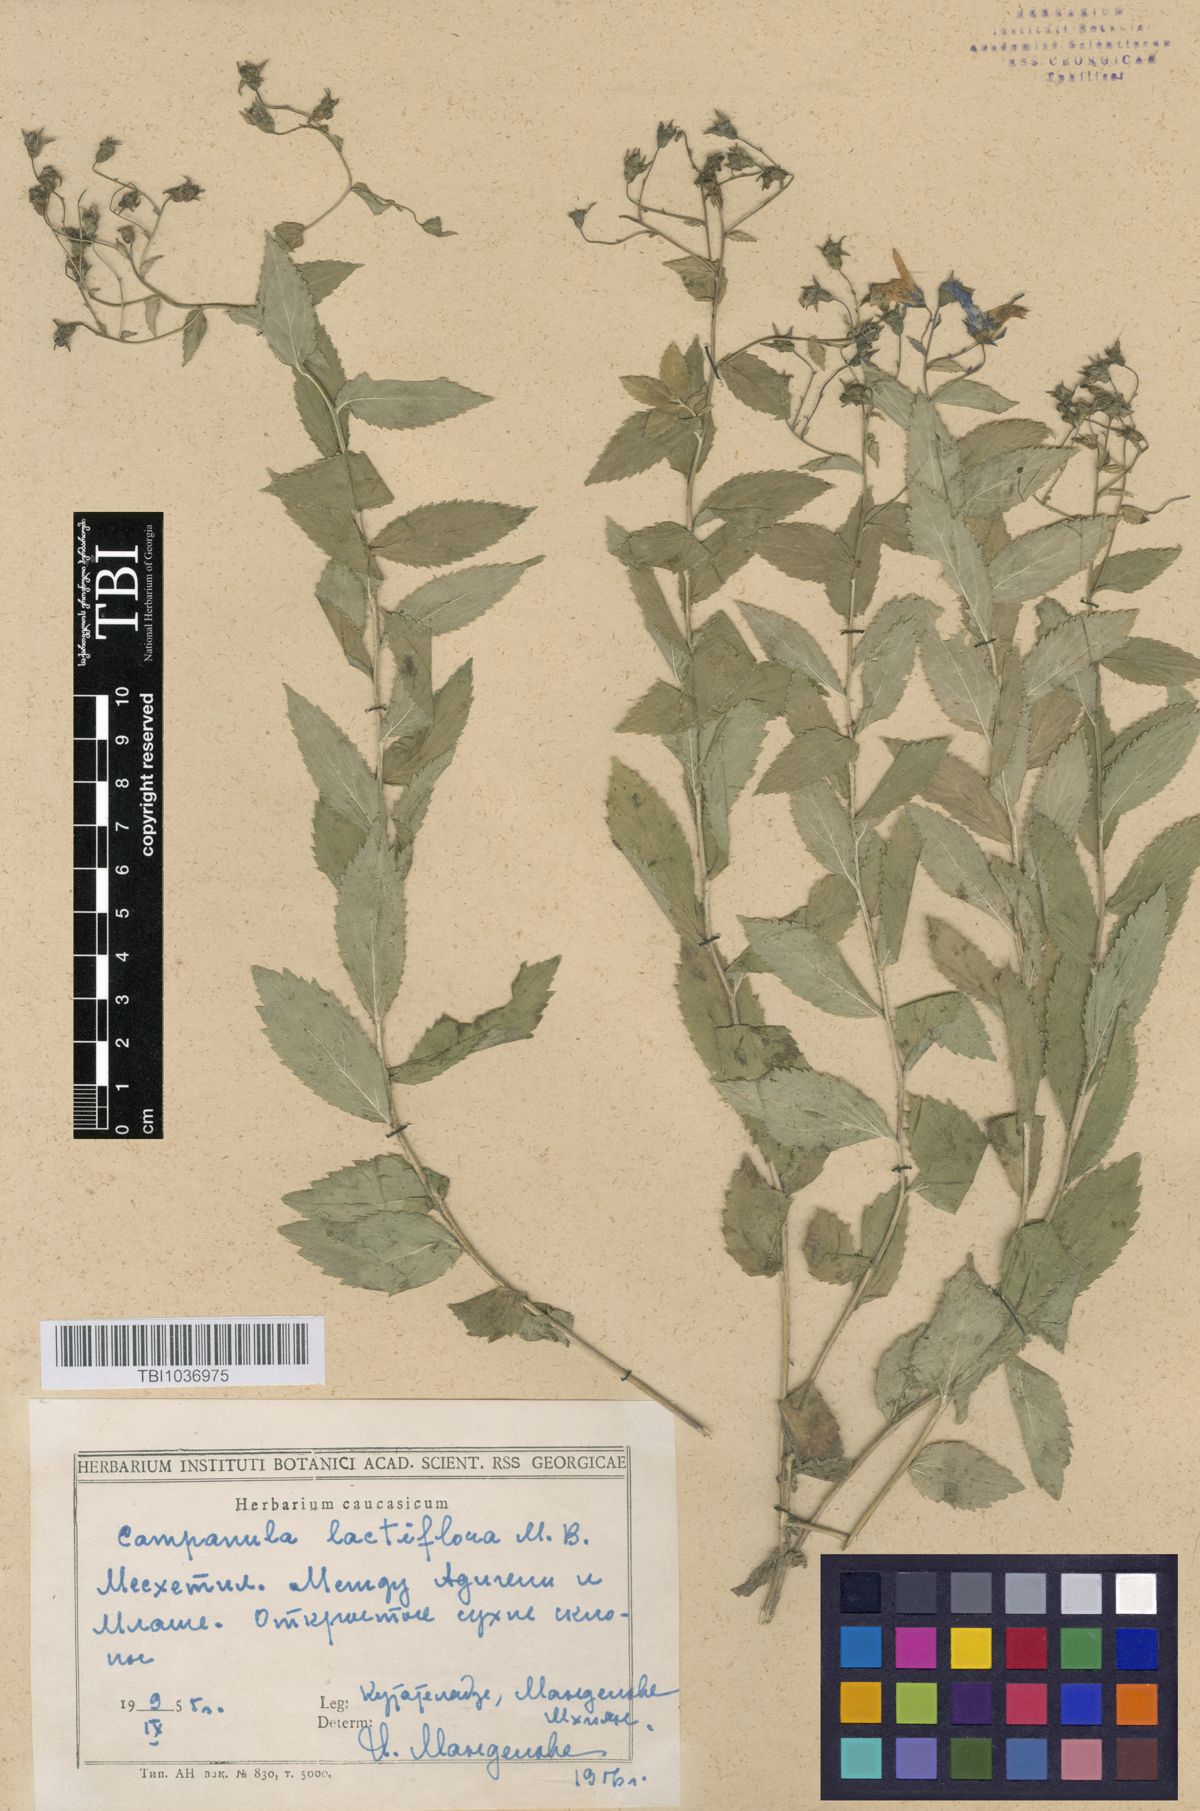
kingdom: Plantae
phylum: Tracheophyta
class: Magnoliopsida
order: Asterales
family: Campanulaceae
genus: Campanula
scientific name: Campanula lactiflora
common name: Milky bellflower
